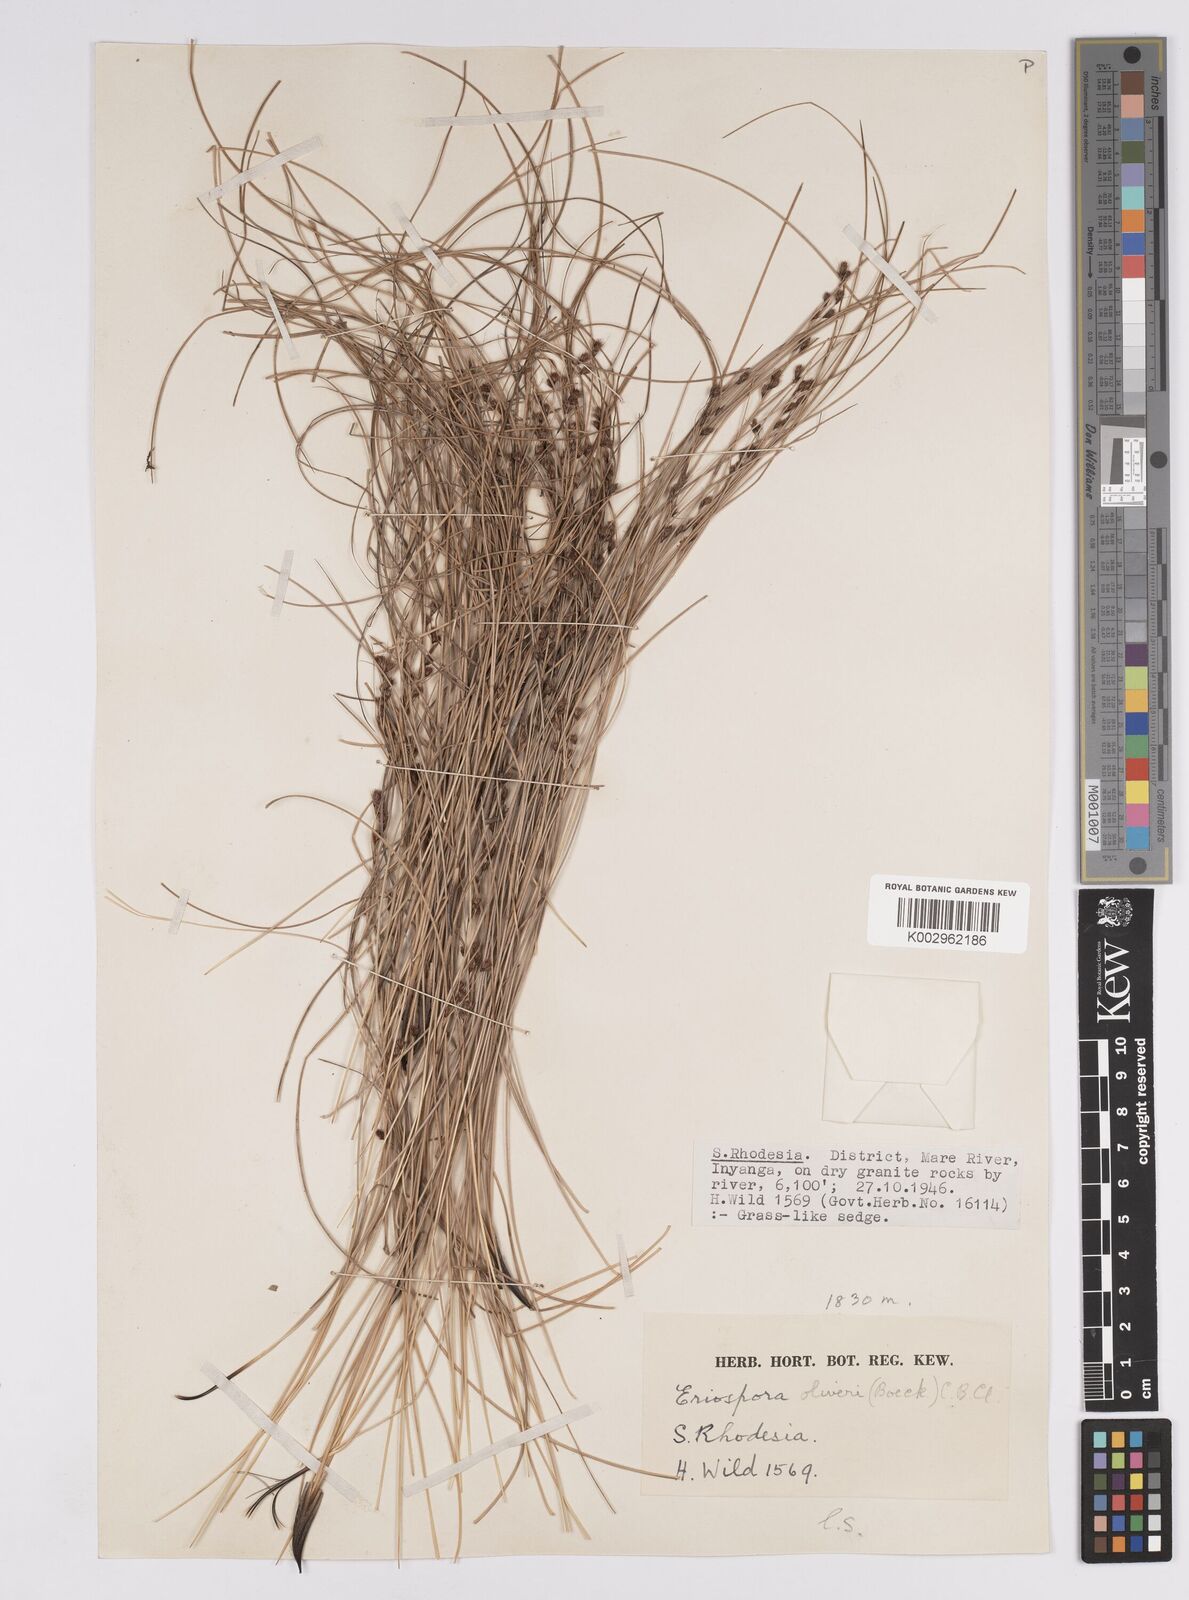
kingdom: Plantae
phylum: Tracheophyta
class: Liliopsida
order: Poales
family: Cyperaceae
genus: Coleochloa
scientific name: Coleochloa setifera
